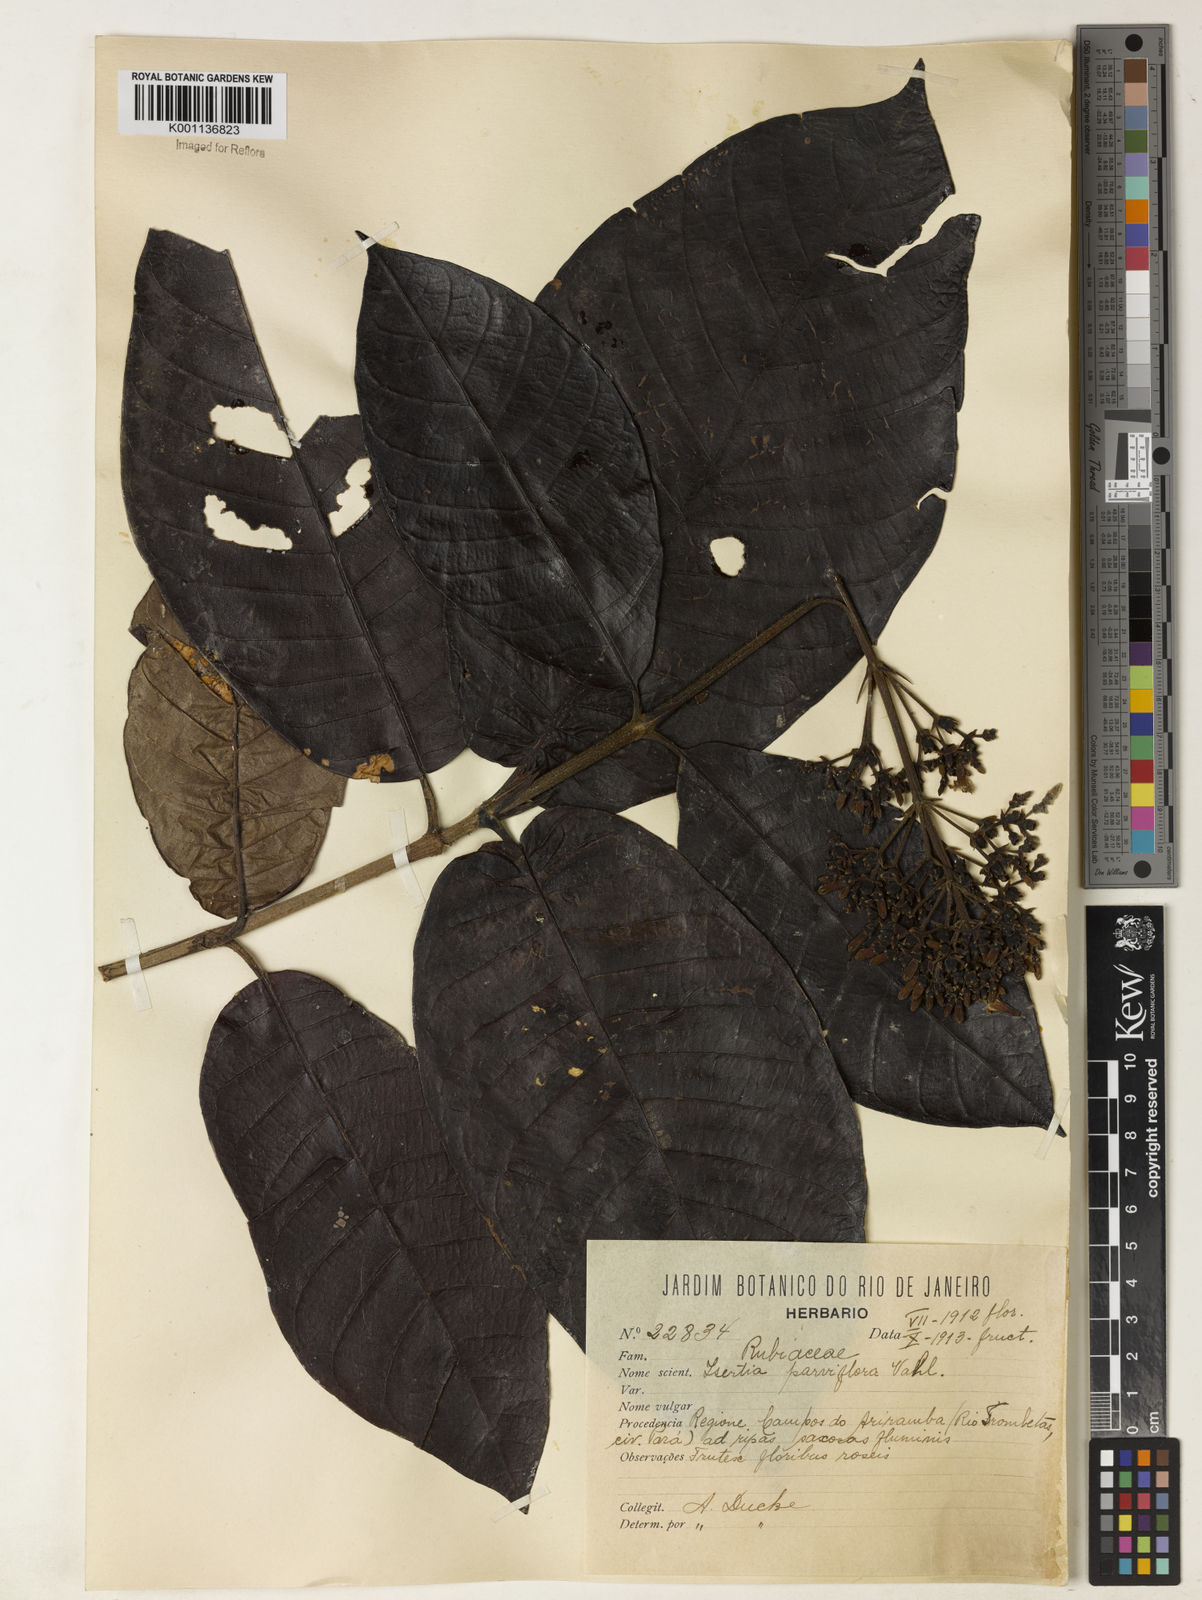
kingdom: Plantae
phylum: Tracheophyta
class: Magnoliopsida
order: Gentianales
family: Rubiaceae
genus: Isertia
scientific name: Isertia parviflora
